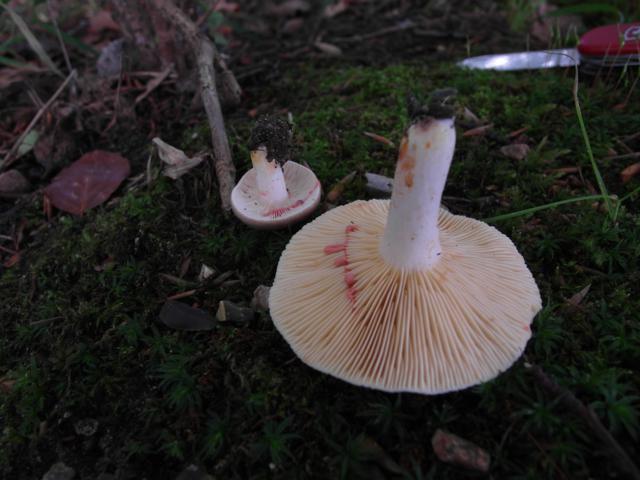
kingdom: Fungi
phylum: Basidiomycota
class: Agaricomycetes
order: Russulales
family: Russulaceae
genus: Lactarius
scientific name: Lactarius acris
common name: rosamælket mælkehat
